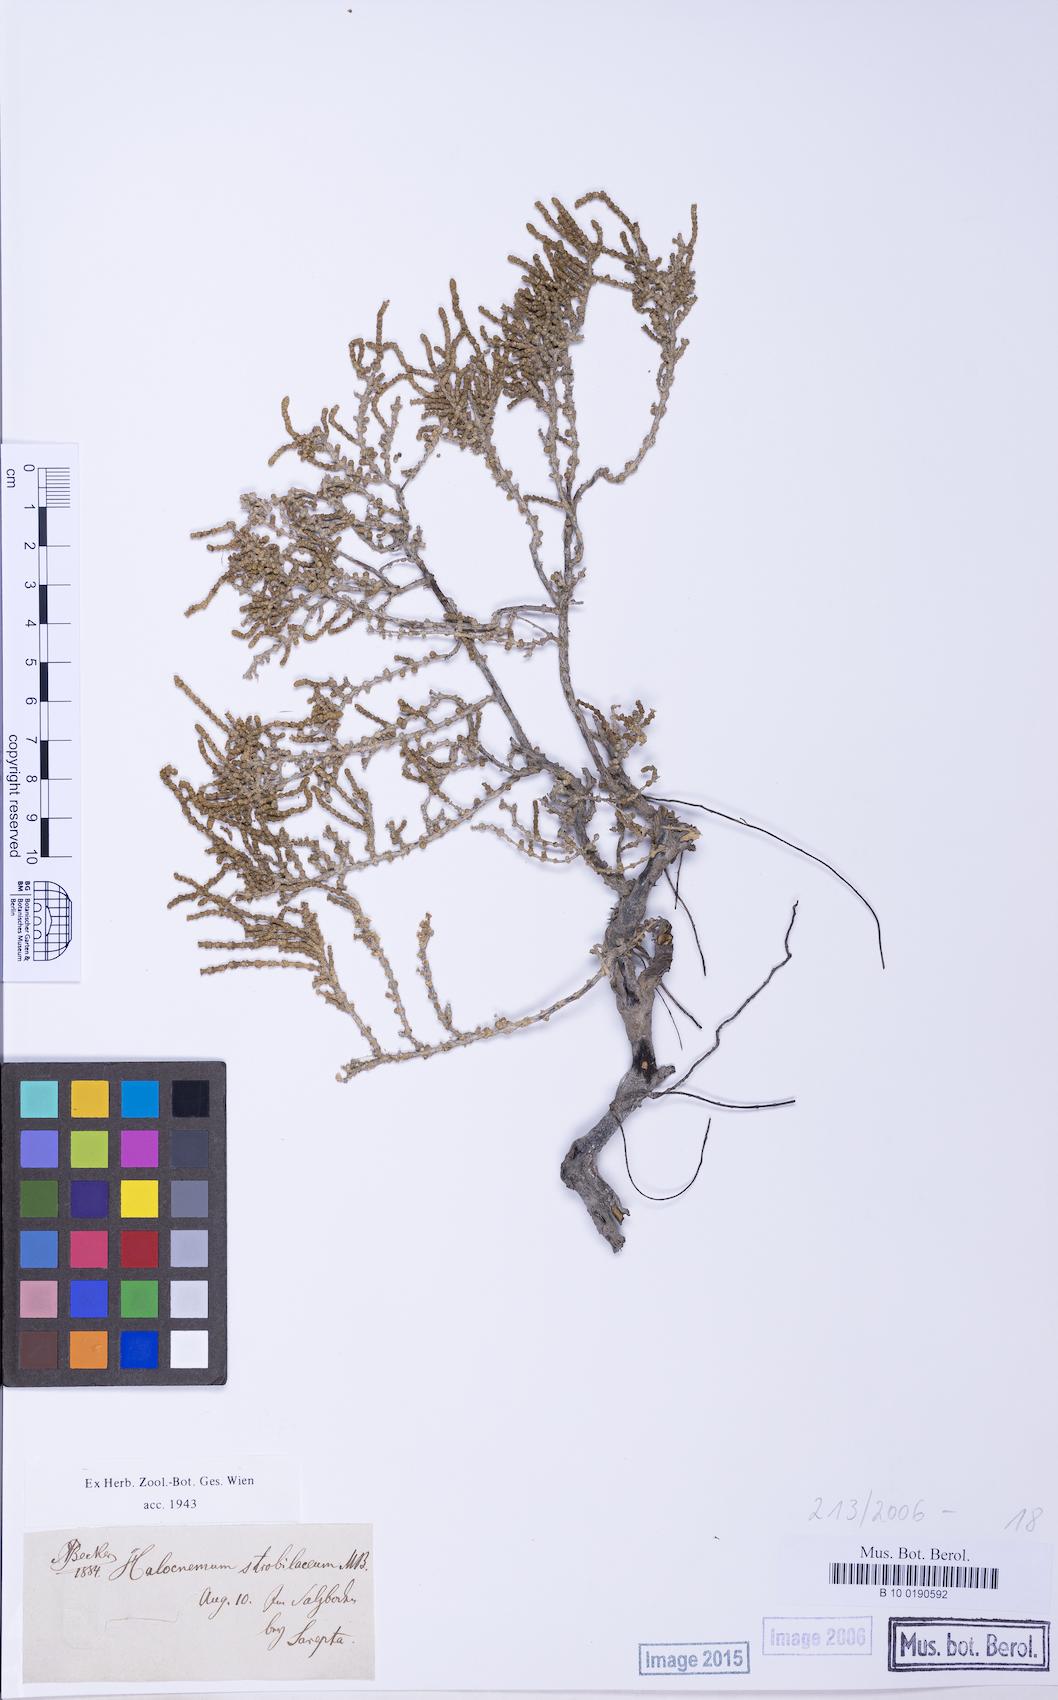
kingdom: Plantae
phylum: Tracheophyta
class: Magnoliopsida
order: Caryophyllales
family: Amaranthaceae
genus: Halocnemum
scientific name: Halocnemum strobilaceum
